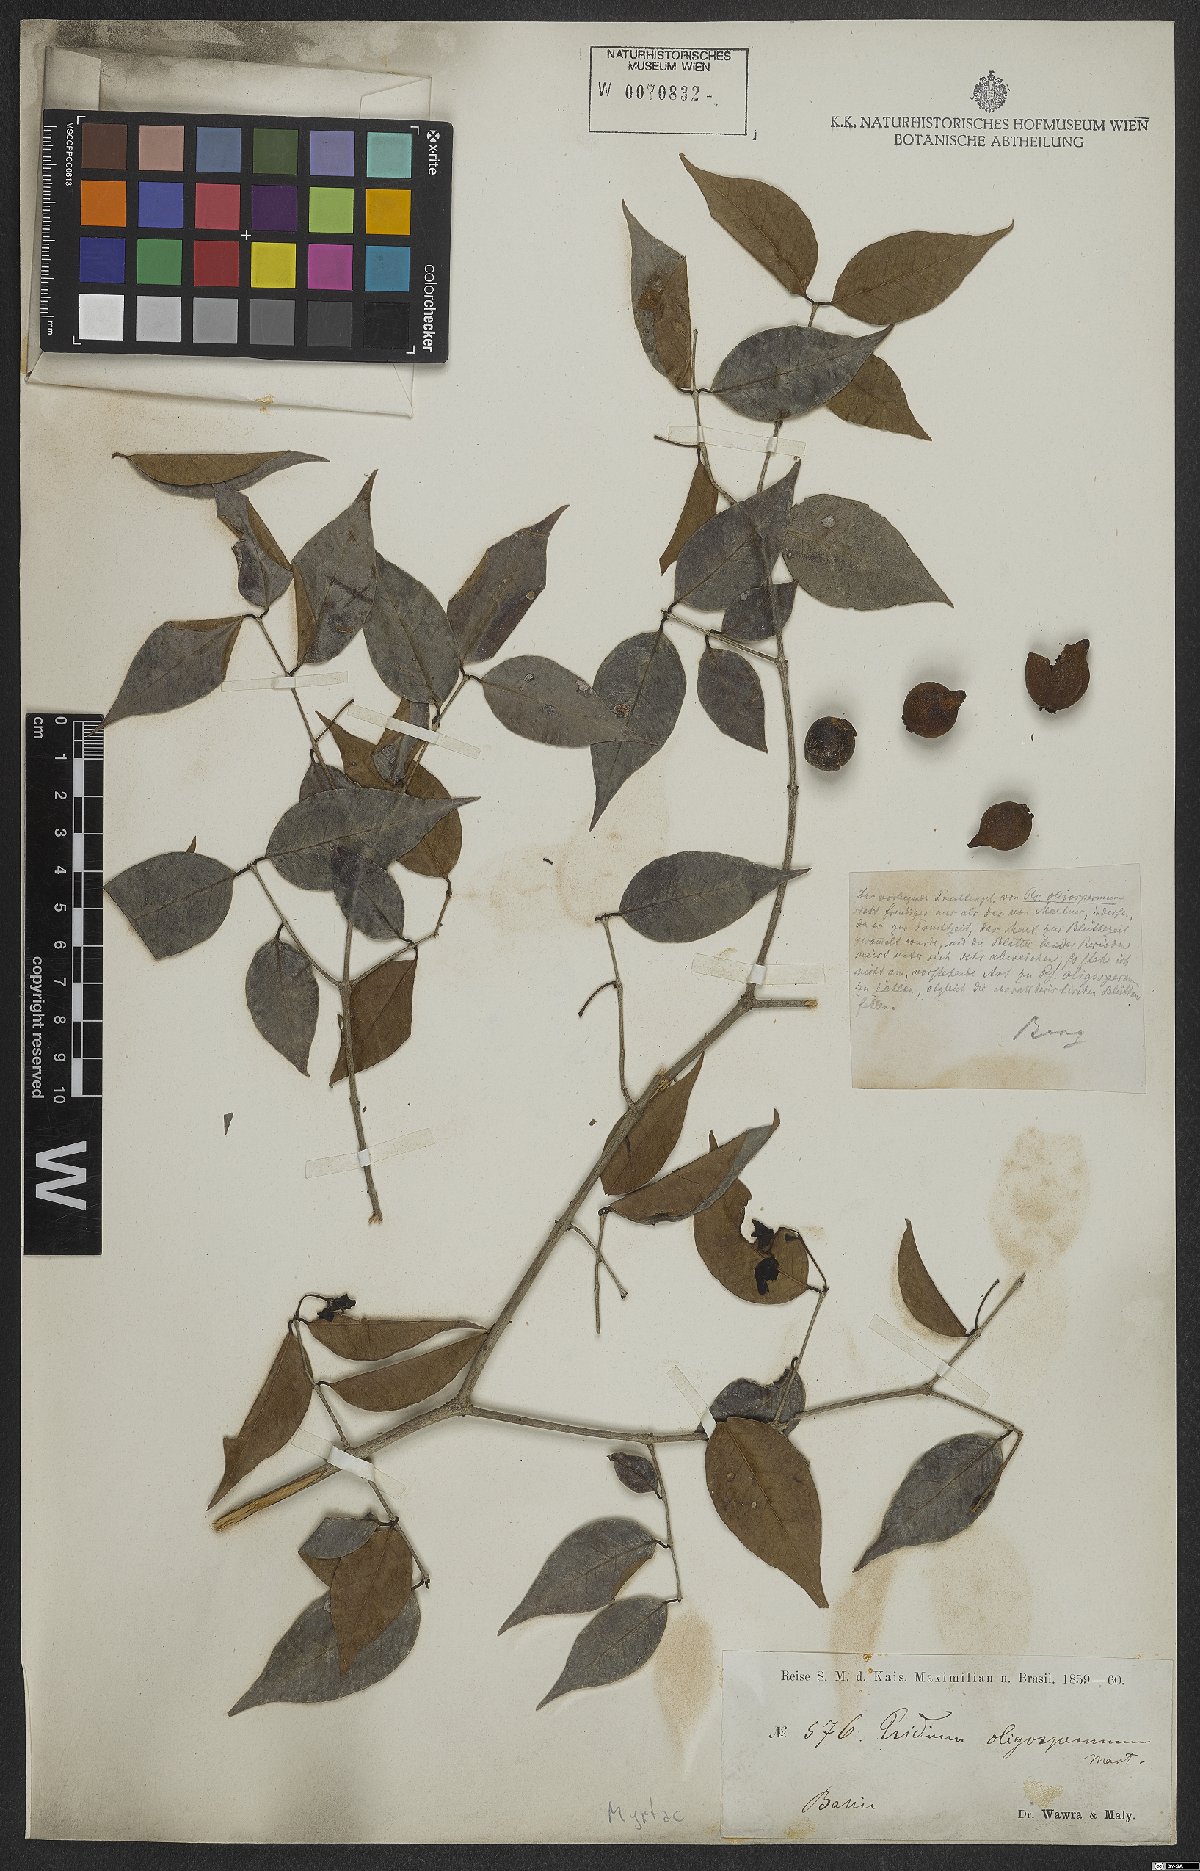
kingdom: Plantae
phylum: Tracheophyta
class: Magnoliopsida
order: Myrtales
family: Myrtaceae
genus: Psidium
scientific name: Psidium oligospermum
